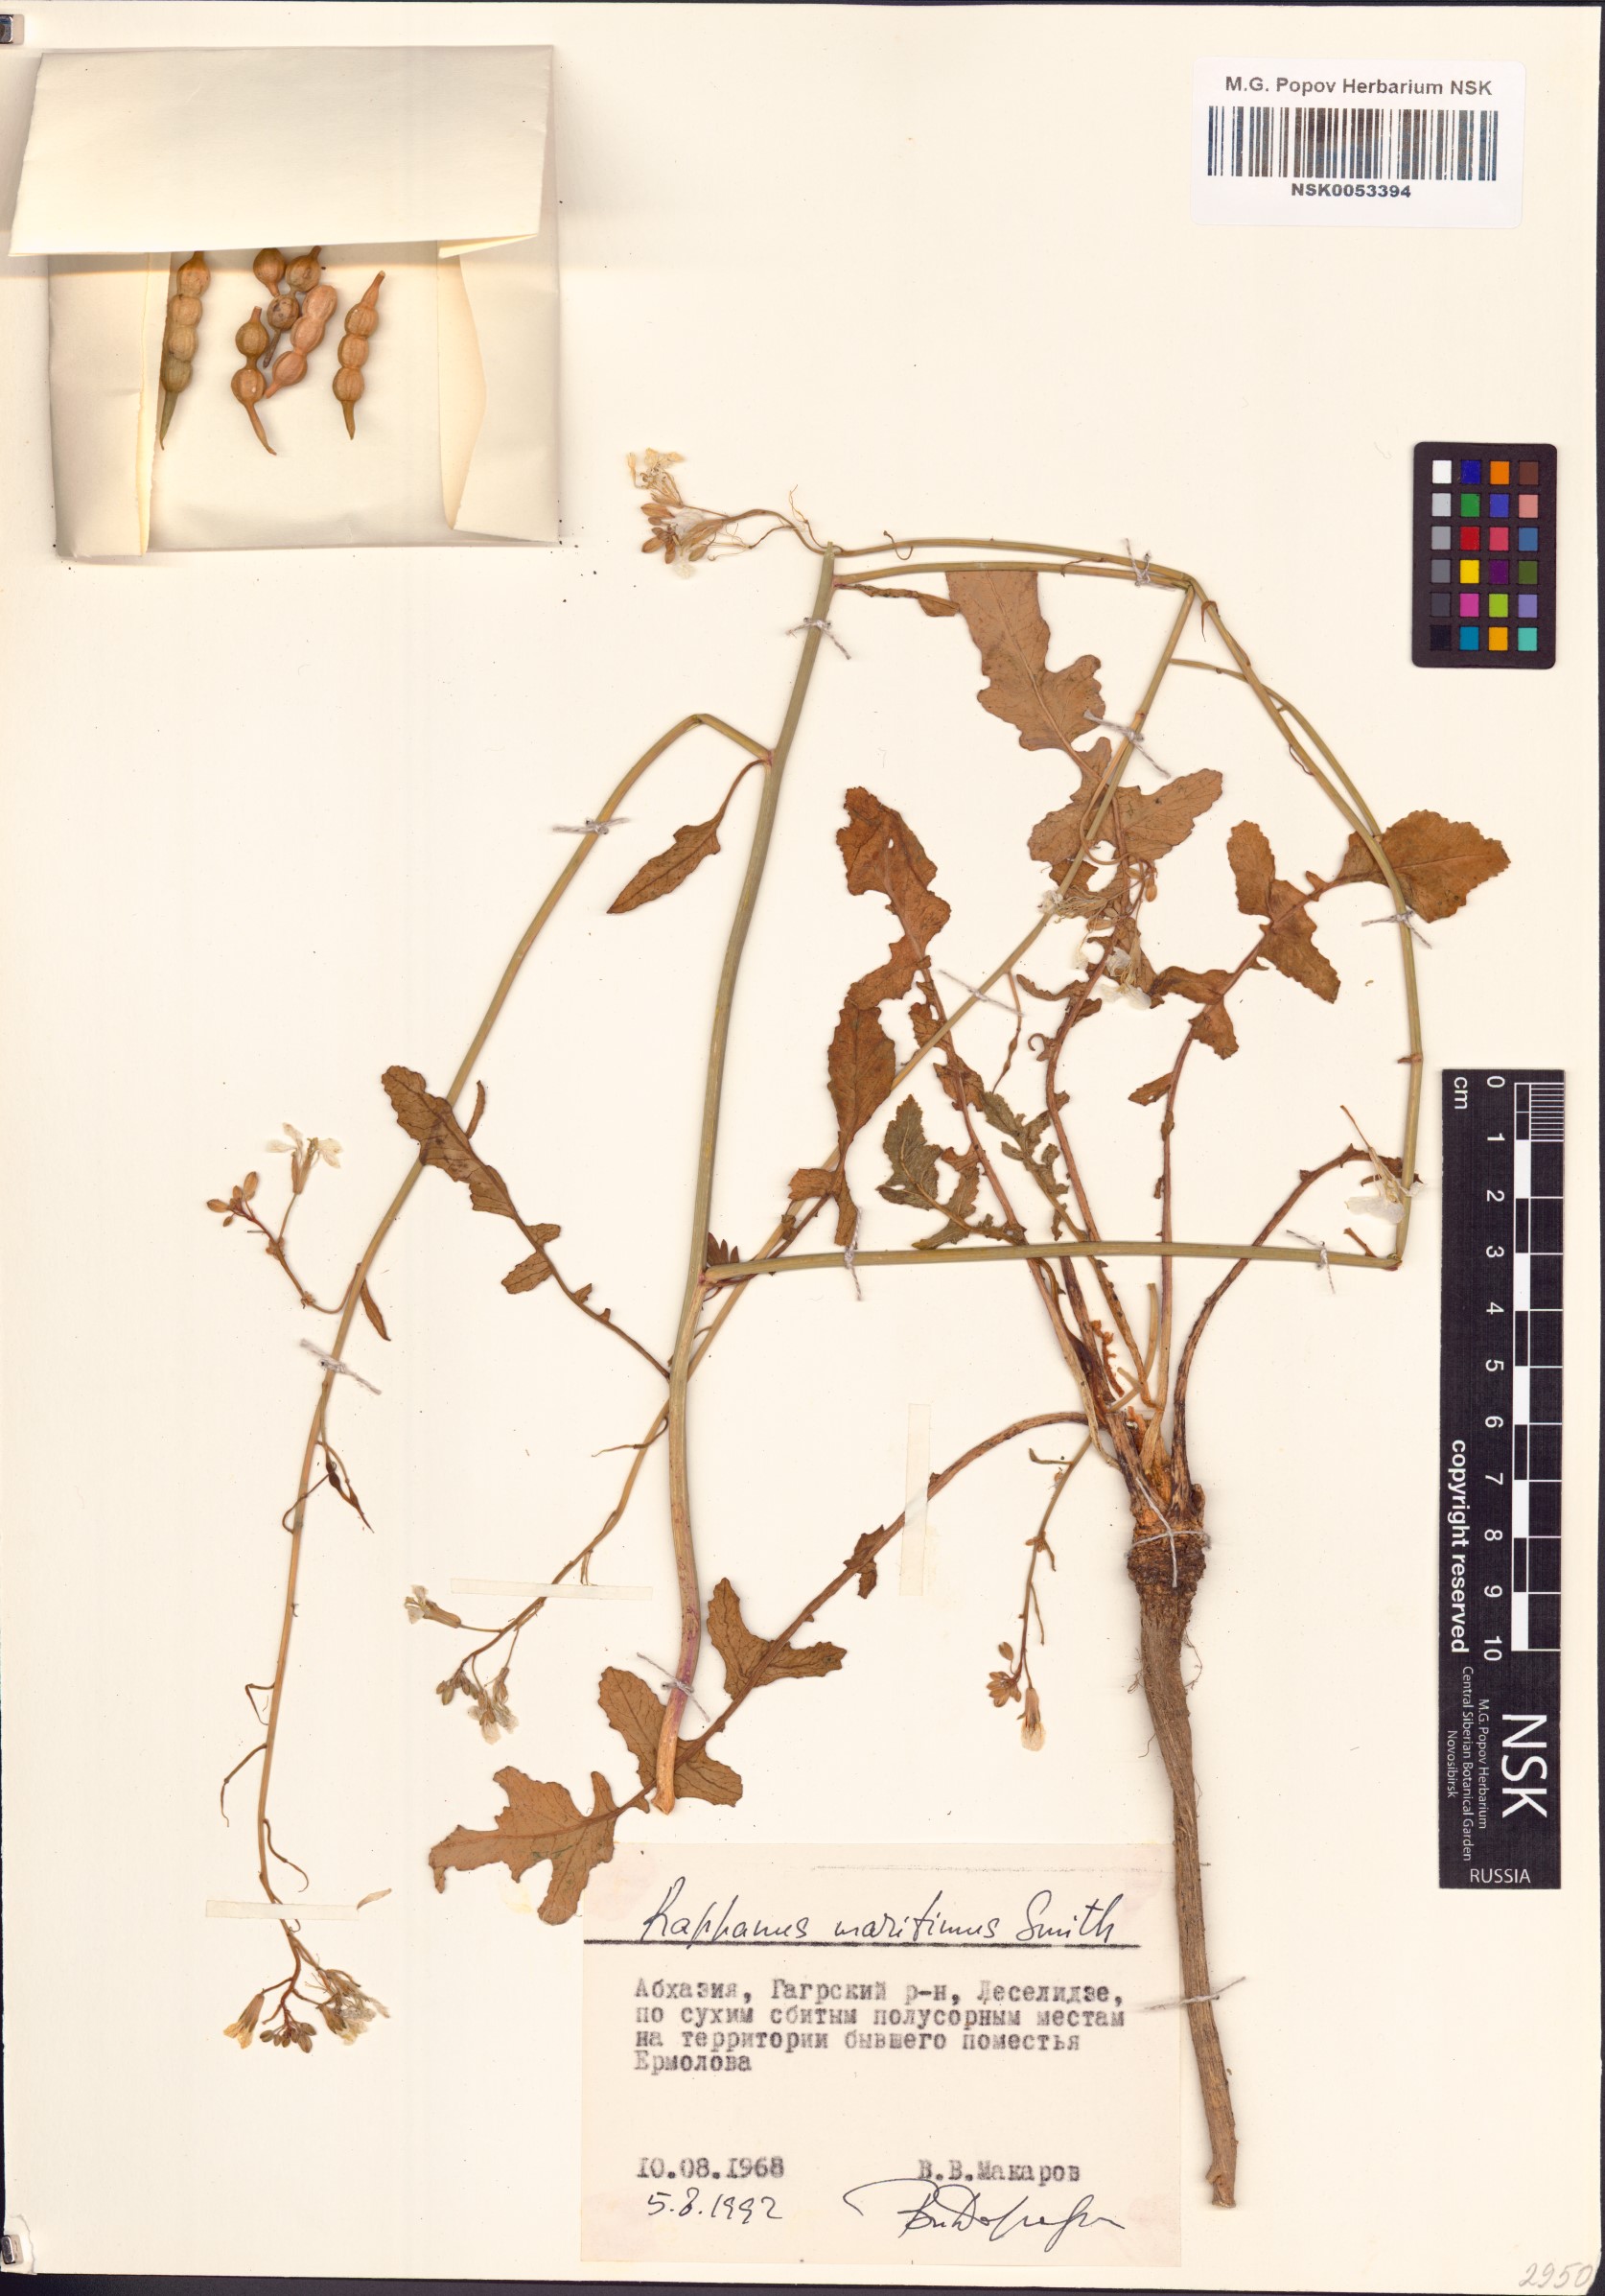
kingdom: Plantae
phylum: Tracheophyta
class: Magnoliopsida
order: Brassicales
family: Brassicaceae
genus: Raphanus
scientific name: Raphanus raphanistrum
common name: Wild radish
